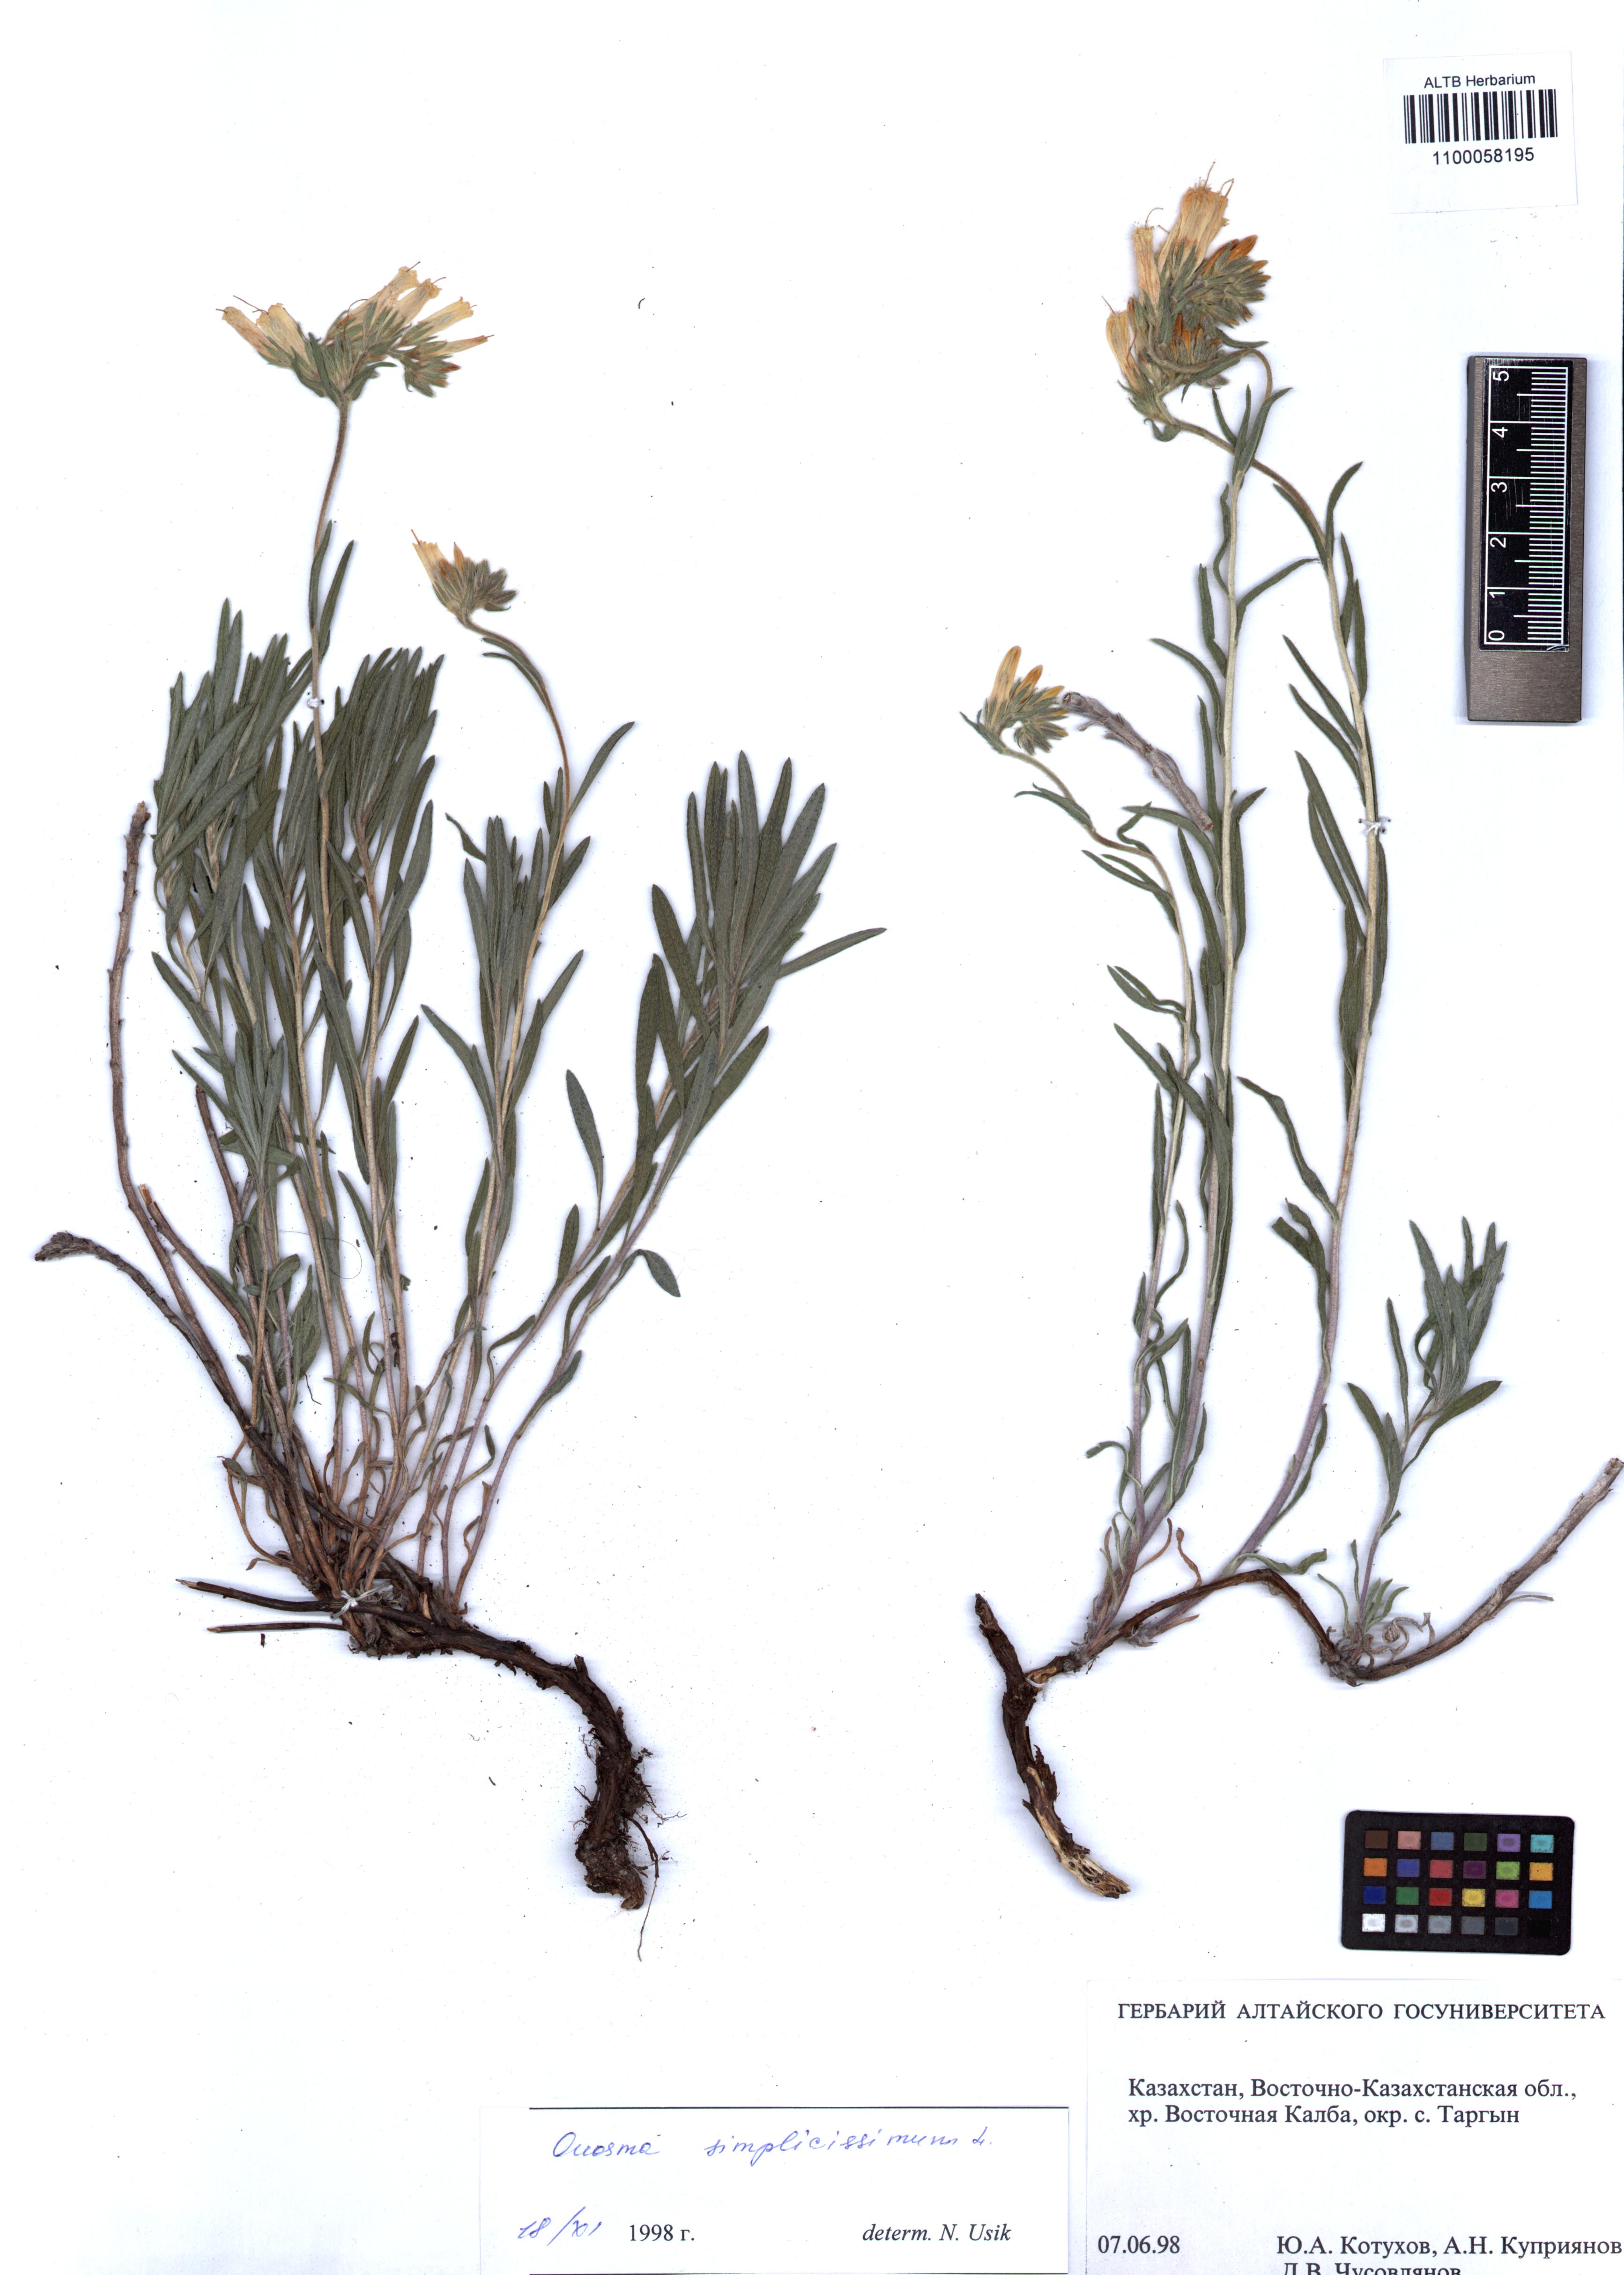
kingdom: Plantae
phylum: Tracheophyta
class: Magnoliopsida
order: Boraginales
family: Boraginaceae
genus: Onosma
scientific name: Onosma simplicissima
